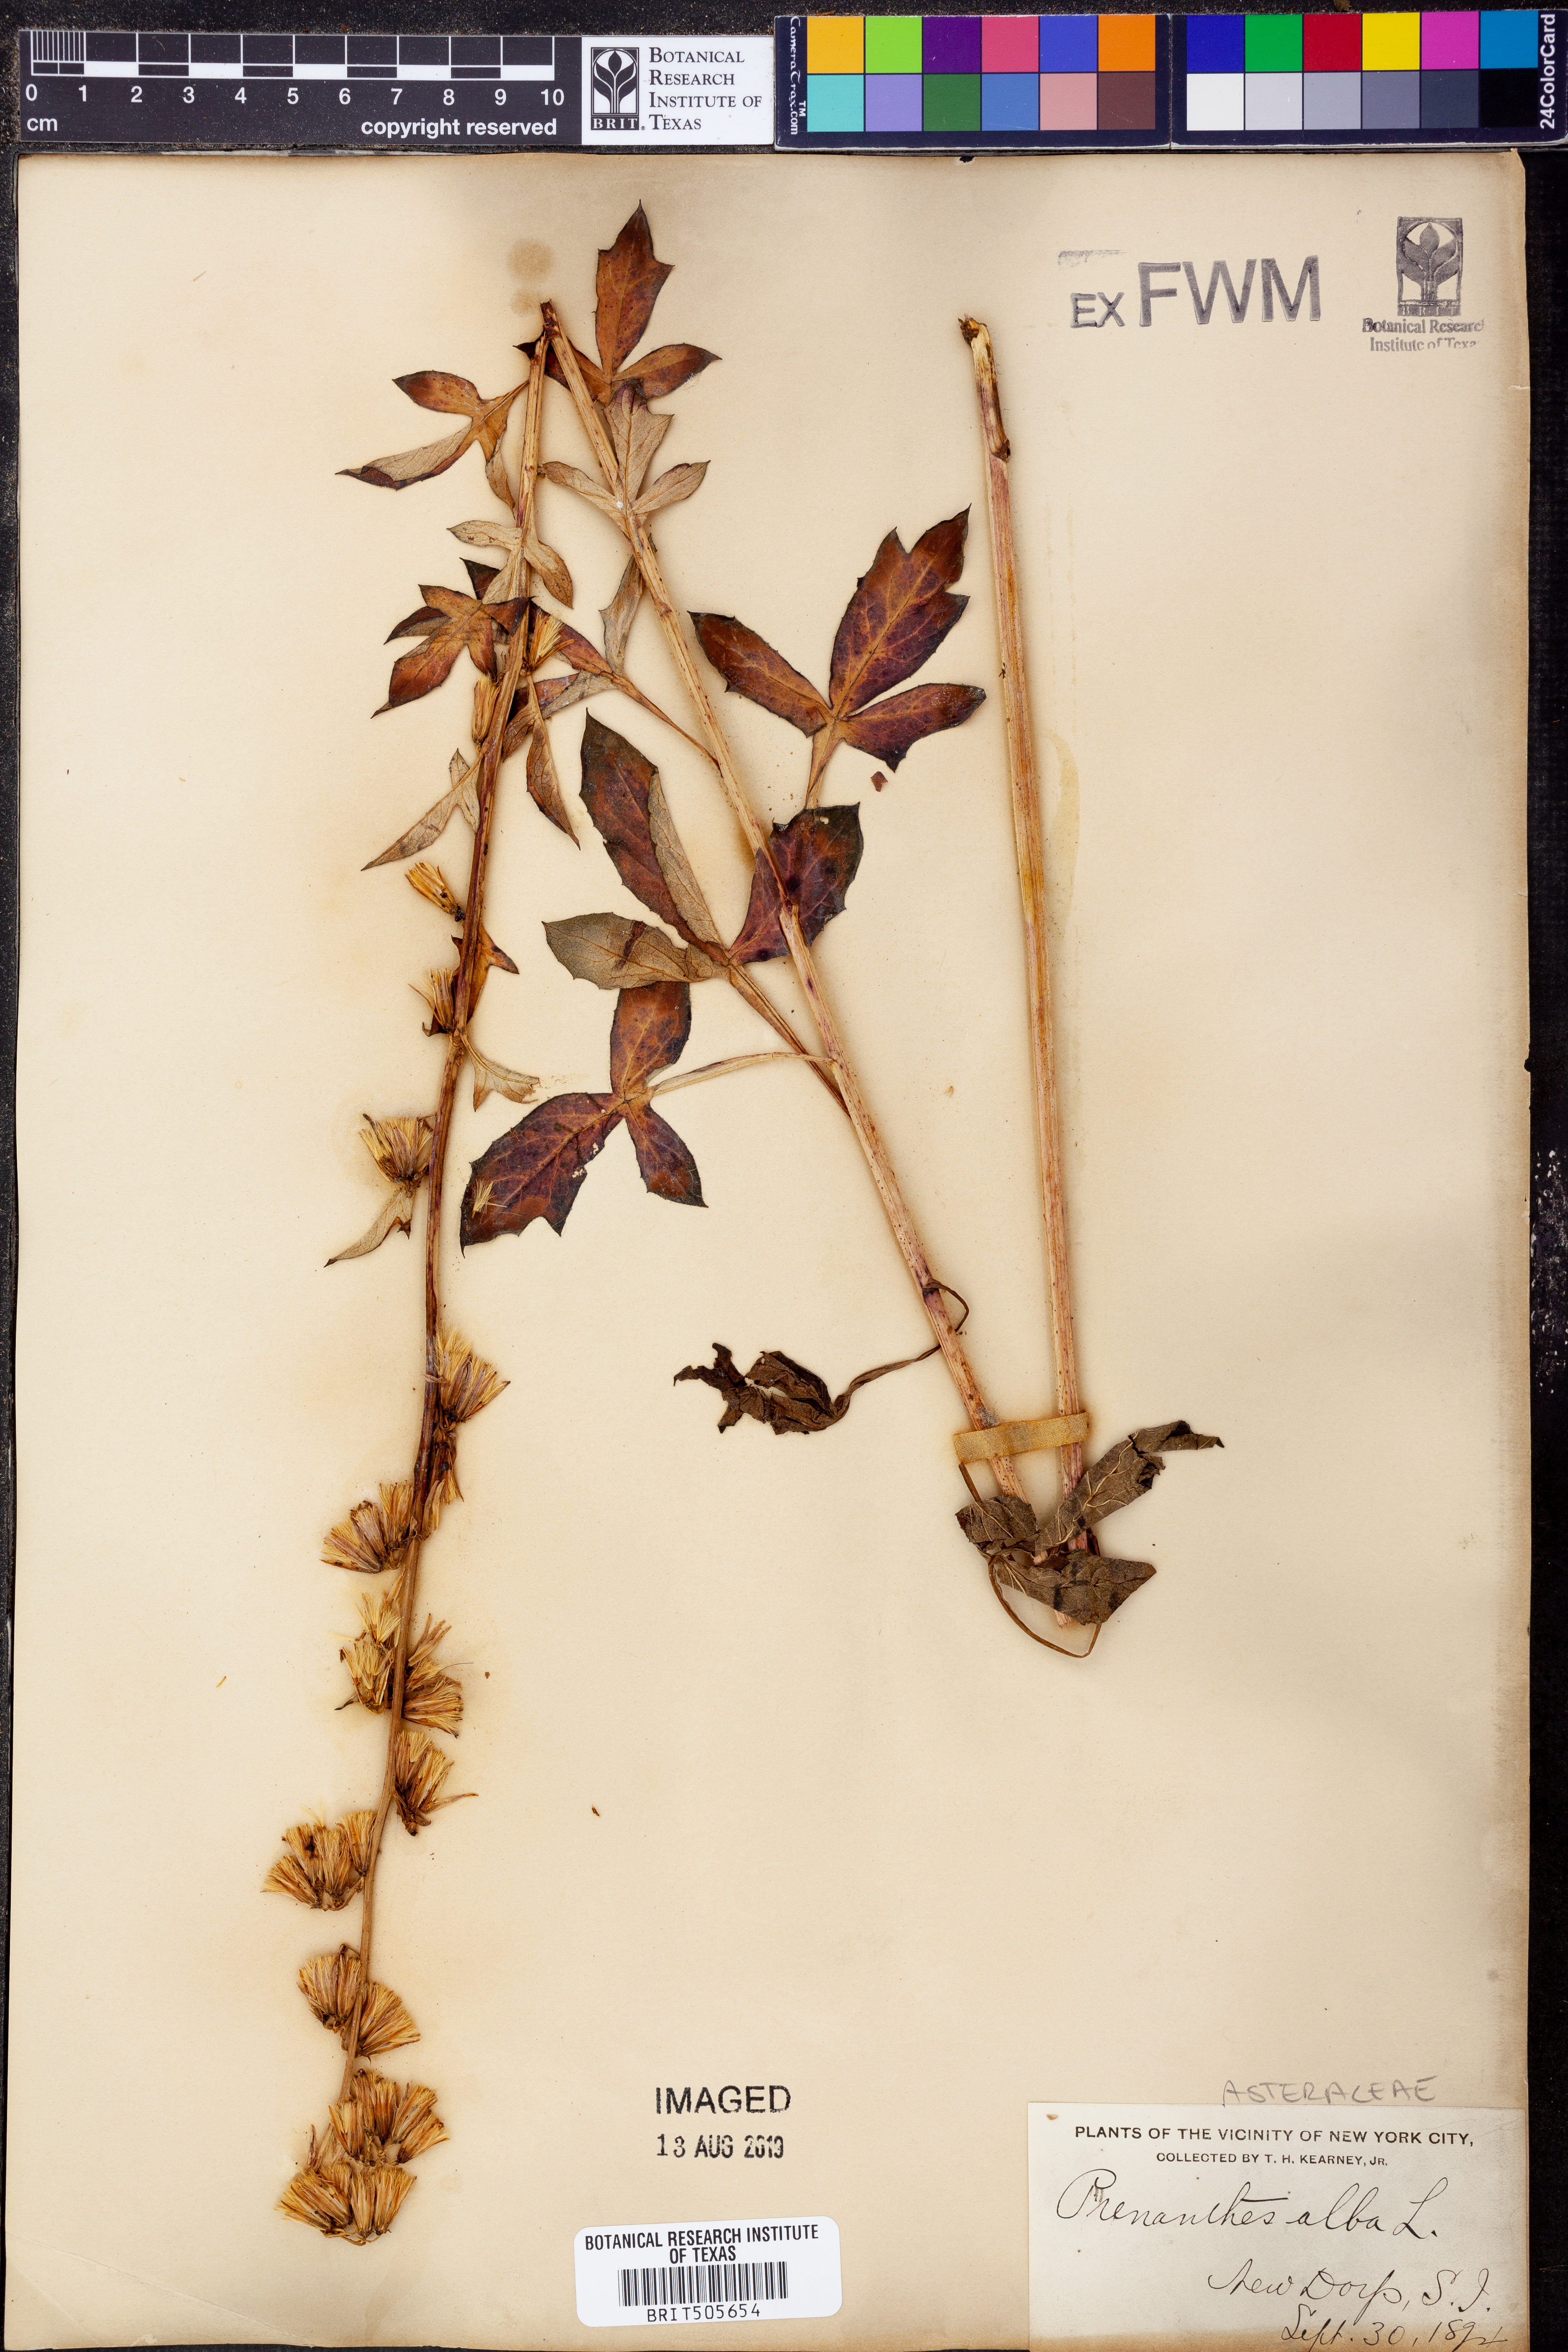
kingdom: Plantae
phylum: Tracheophyta
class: Magnoliopsida
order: Asterales
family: Asteraceae
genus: Nabalus
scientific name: Nabalus albus
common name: White rattlesnakeroot
